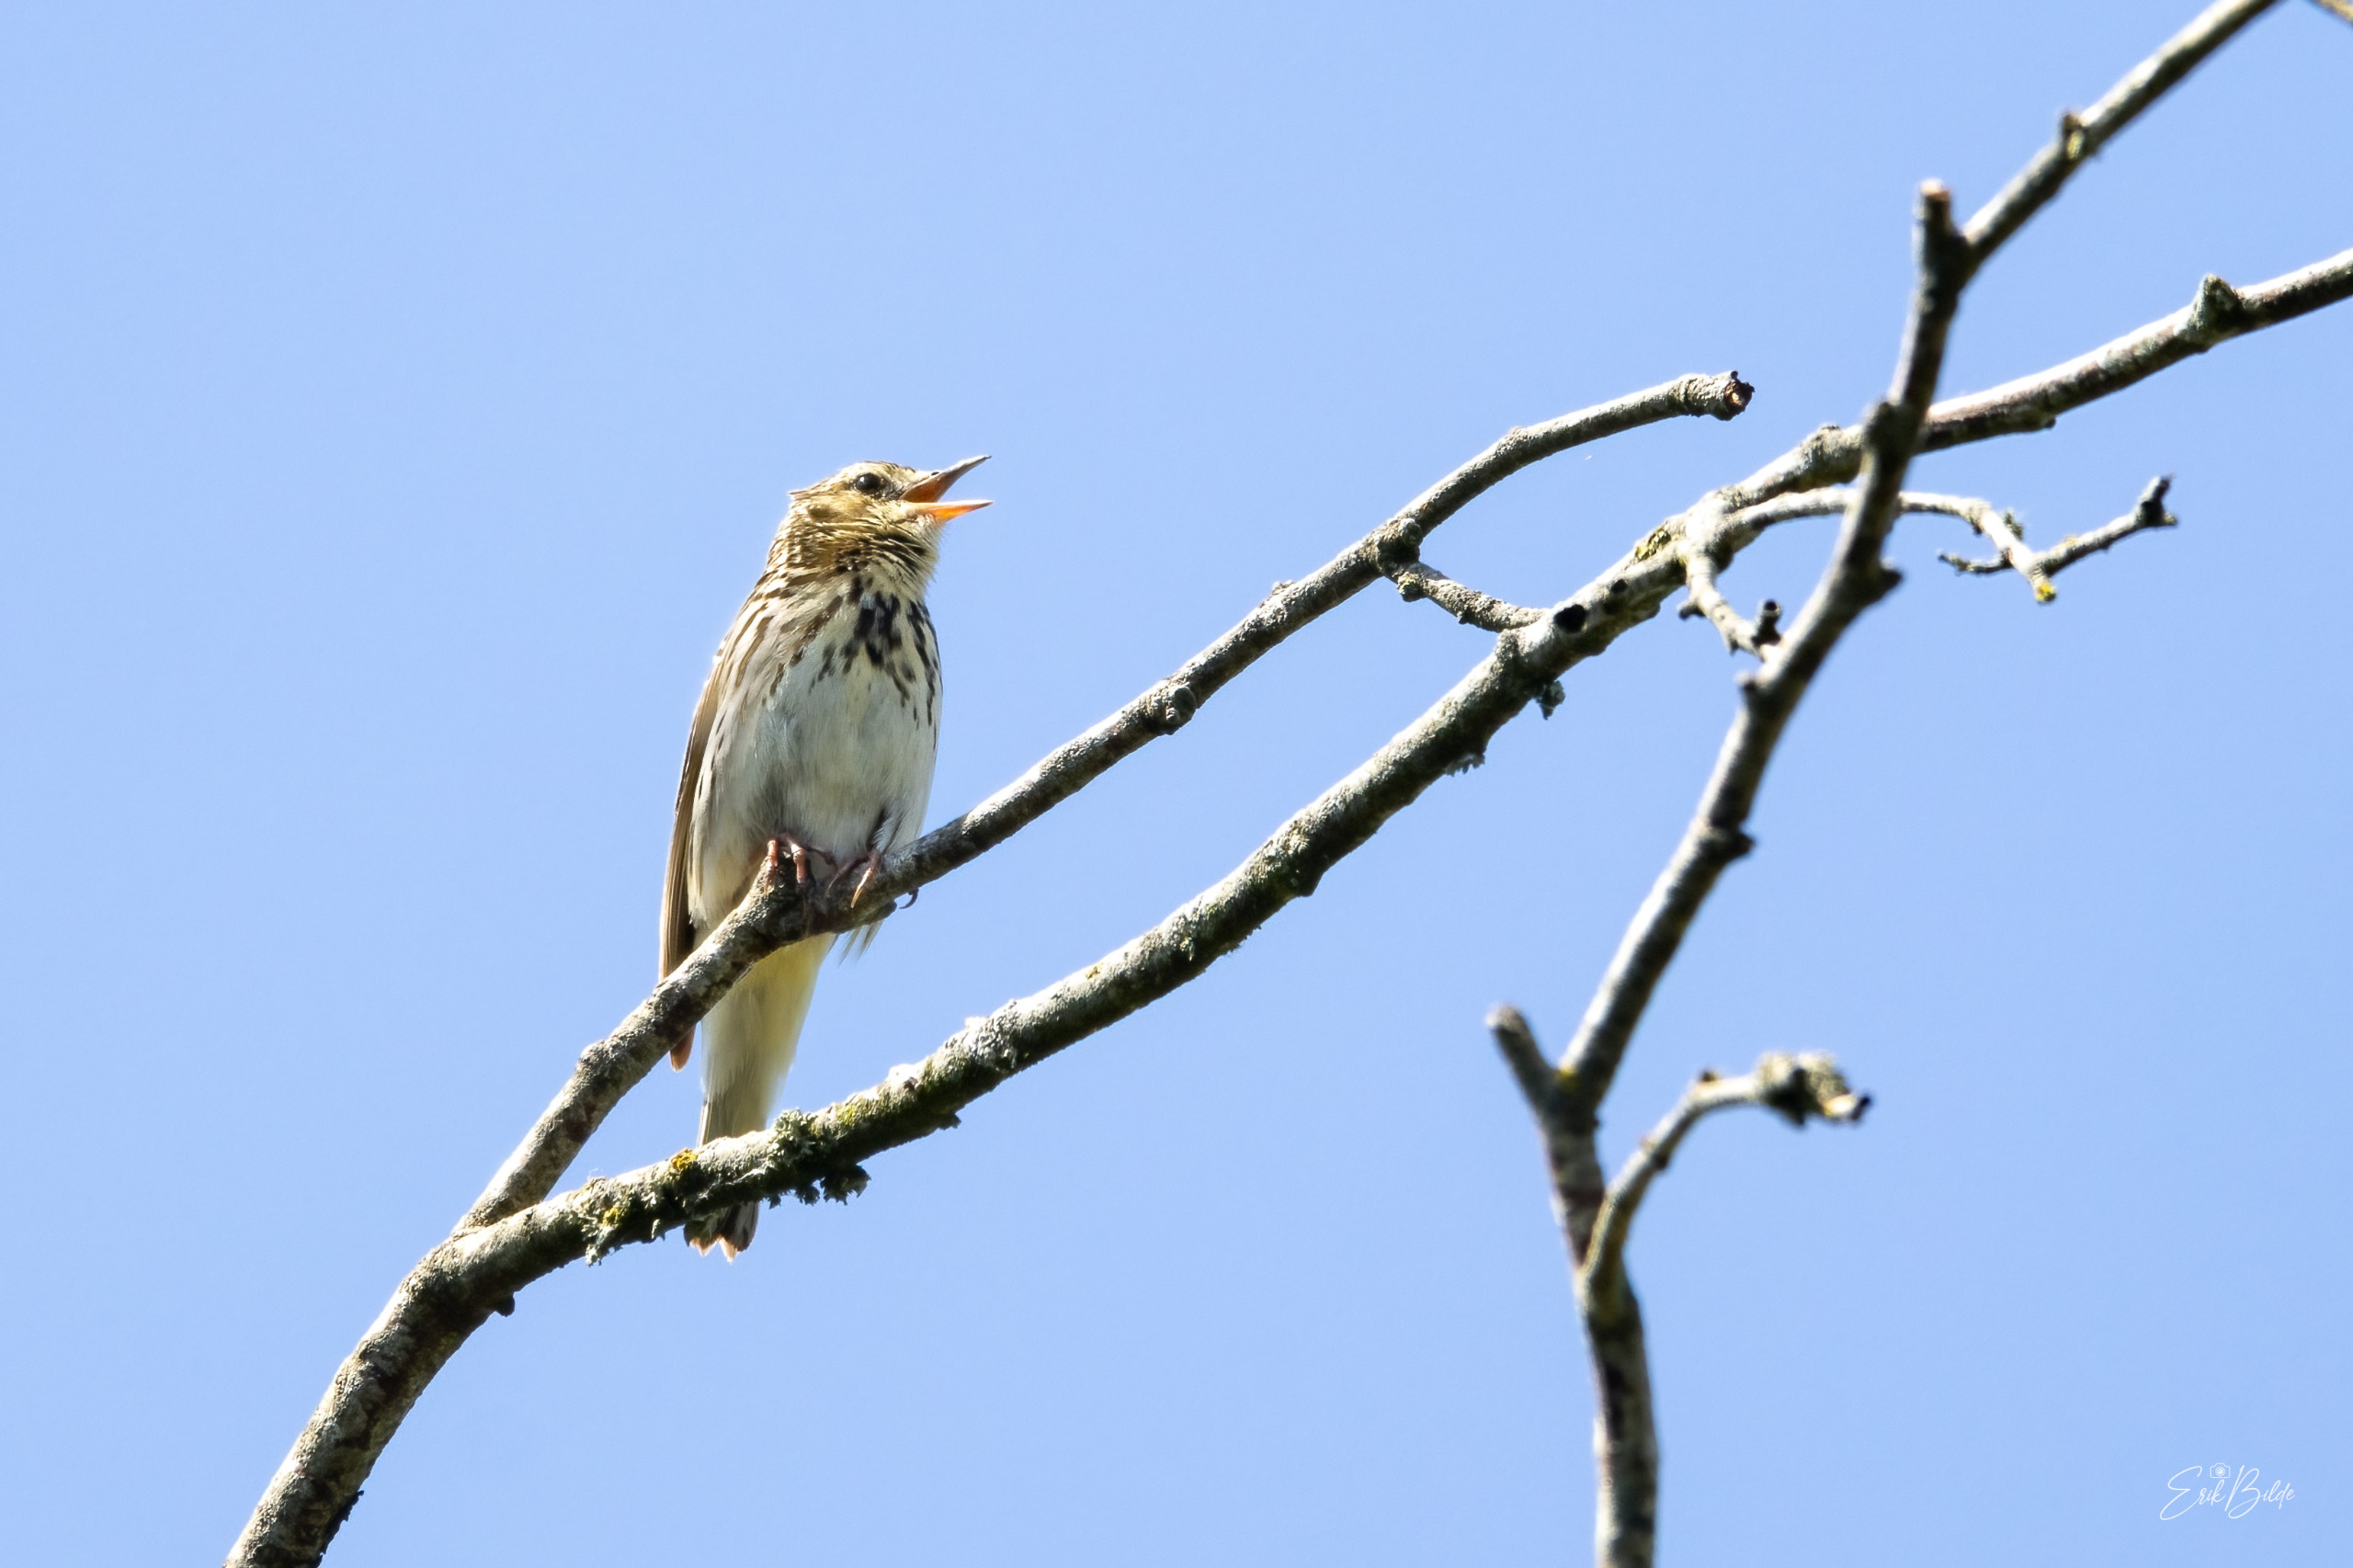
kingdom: Animalia
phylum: Chordata
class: Aves
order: Passeriformes
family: Motacillidae
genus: Anthus
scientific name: Anthus trivialis
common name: Skovpiber
